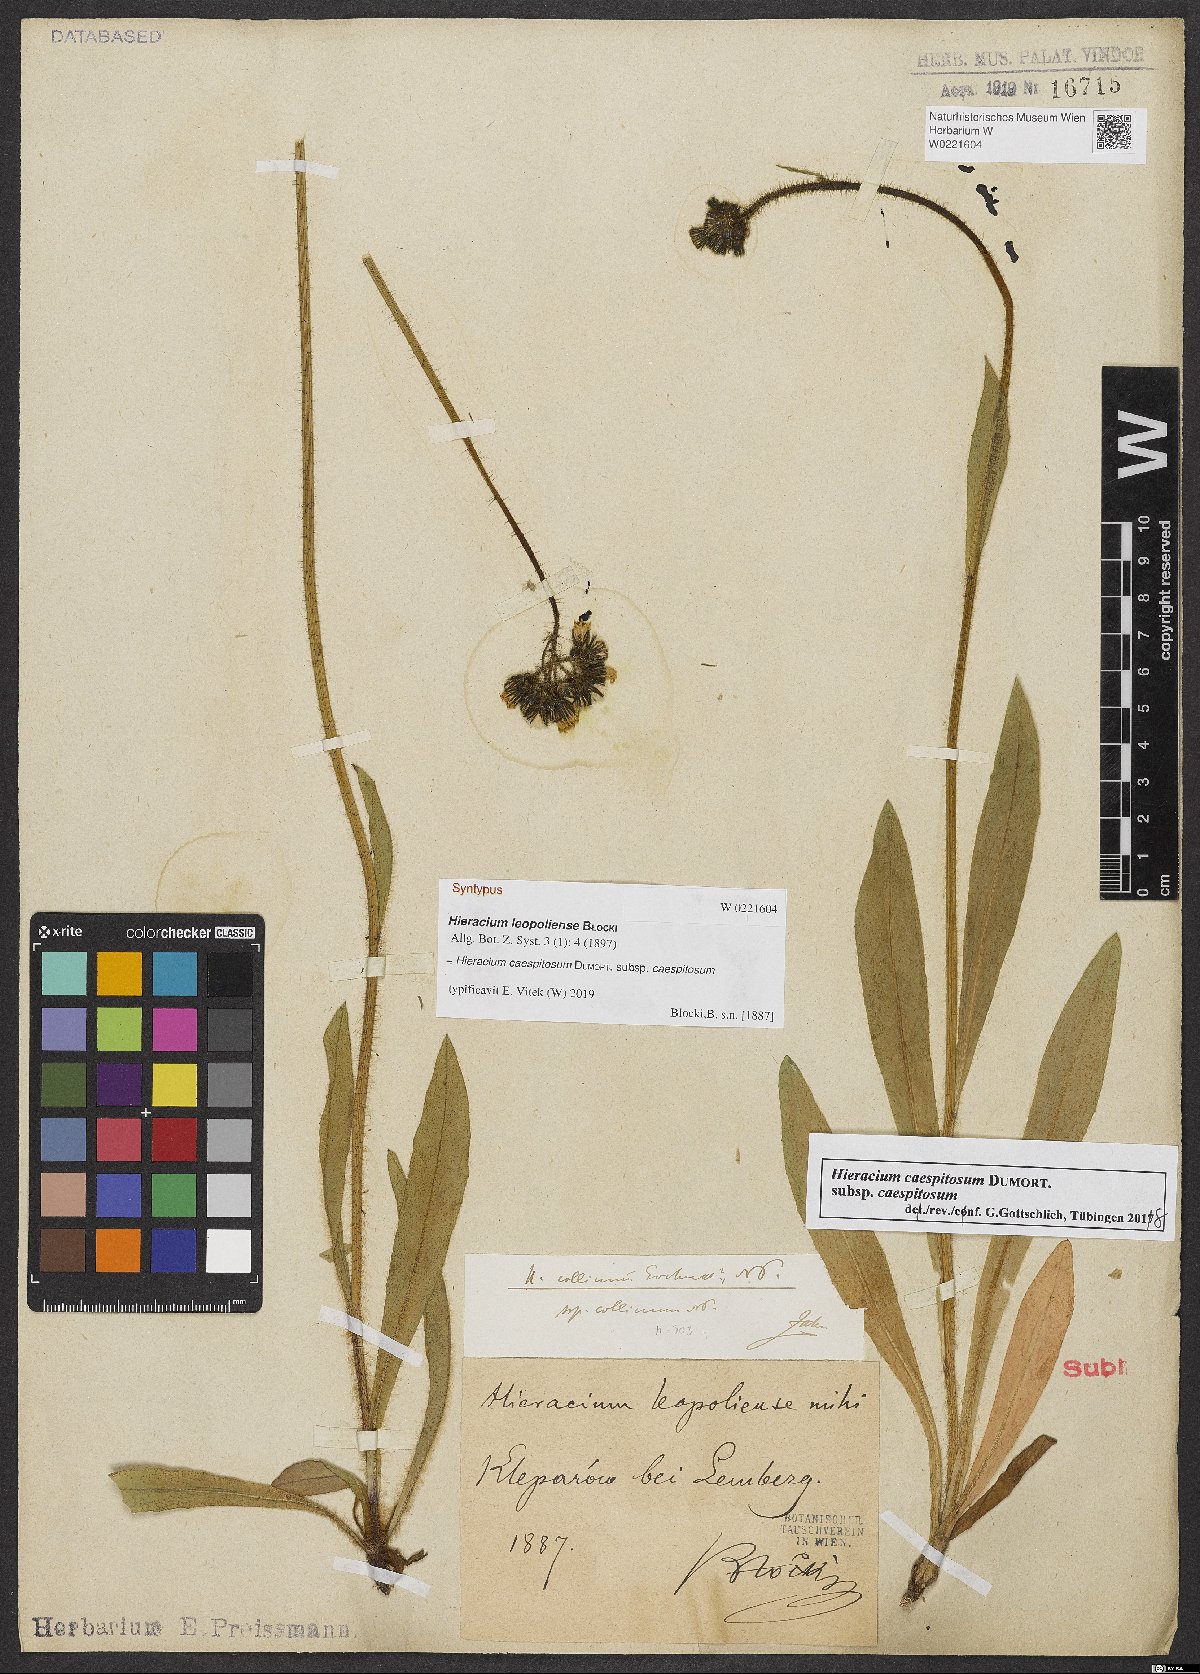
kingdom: Plantae
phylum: Tracheophyta
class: Magnoliopsida
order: Asterales
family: Asteraceae
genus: Pilosella
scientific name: Pilosella polymastix
